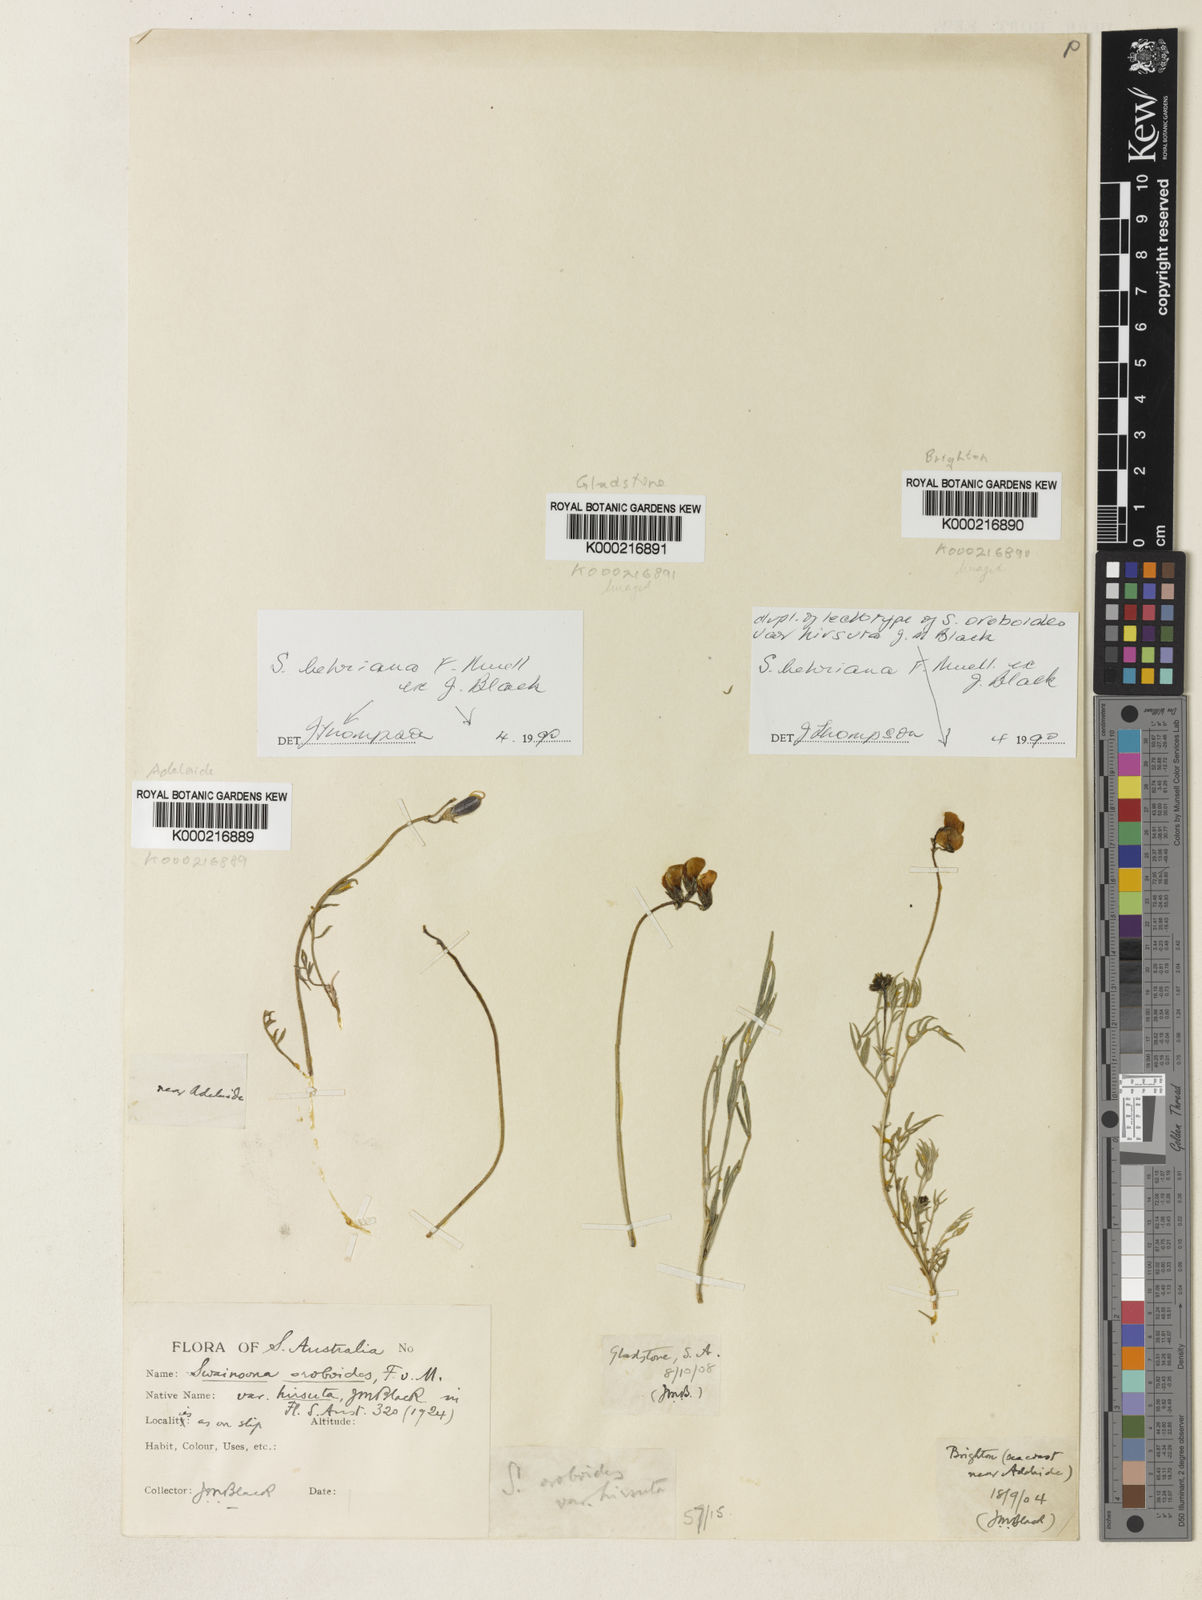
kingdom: Plantae
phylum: Tracheophyta
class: Magnoliopsida
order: Fabales
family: Fabaceae
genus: Swainsona
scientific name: Swainsona behriana
